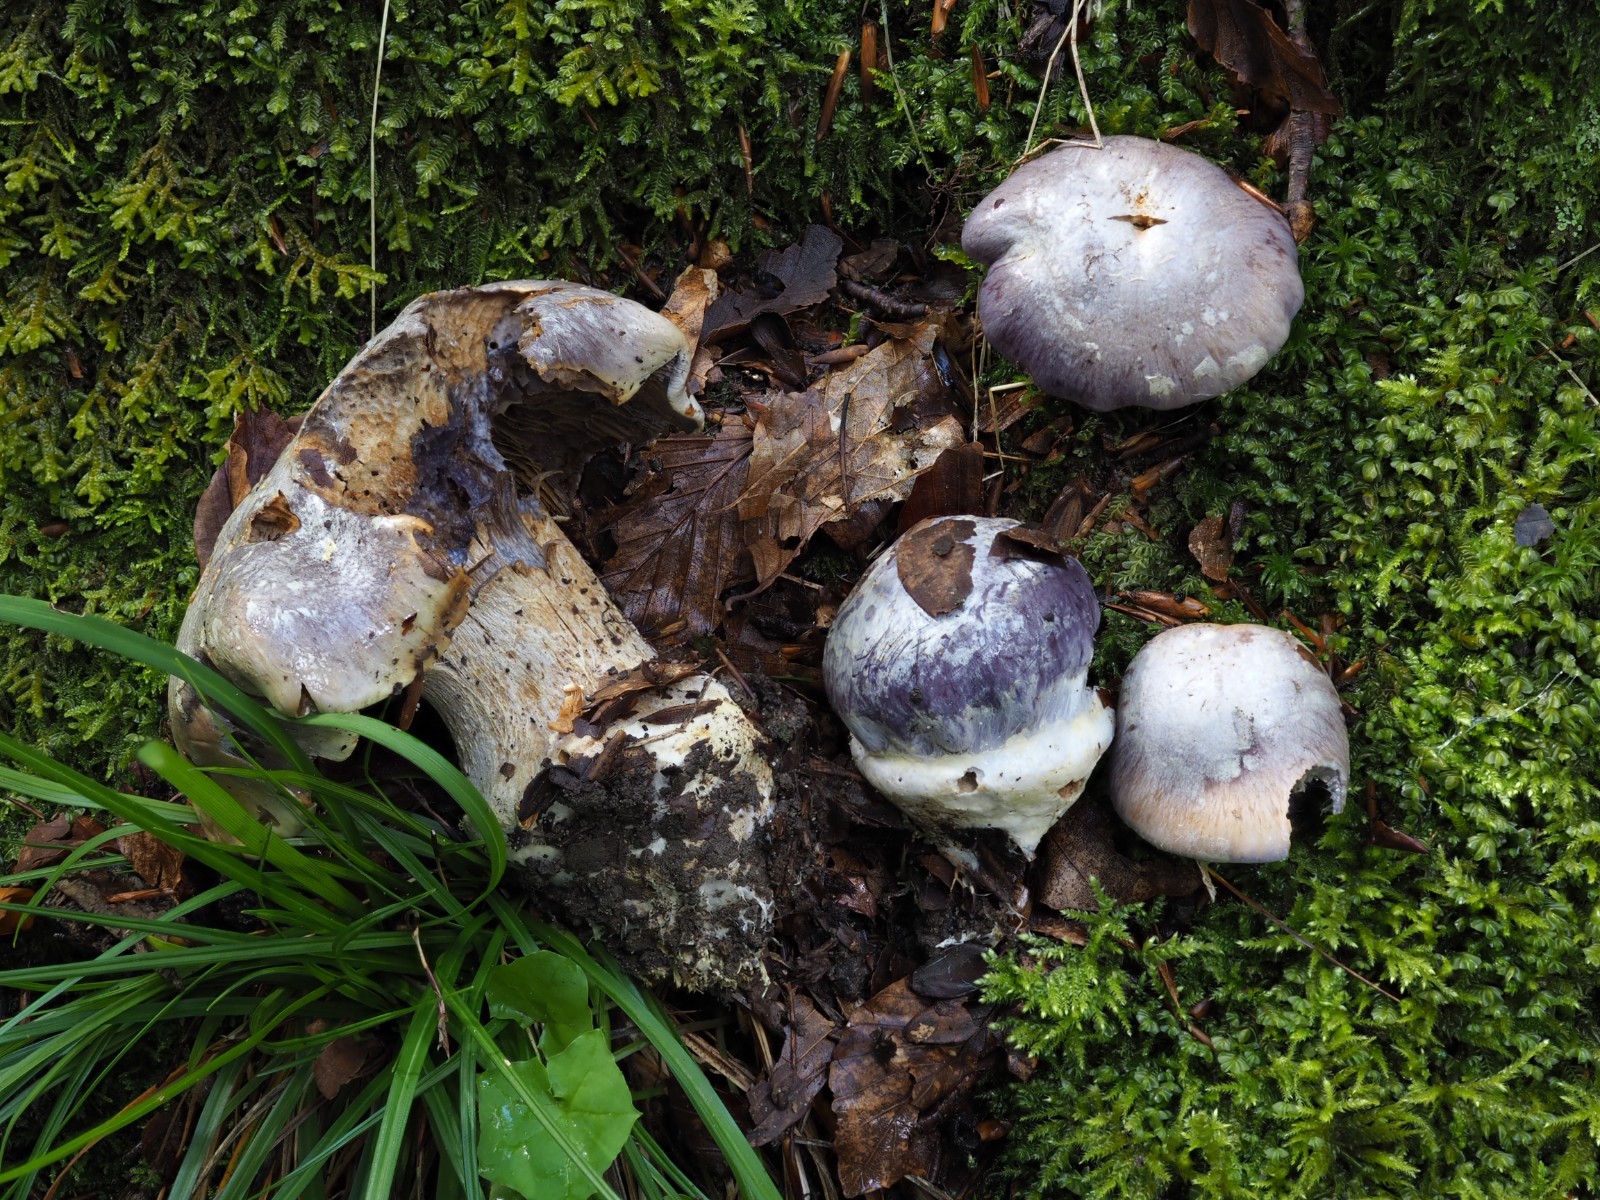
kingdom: Fungi
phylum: Basidiomycota
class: Agaricomycetes
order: Agaricales
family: Cortinariaceae
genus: Cortinarius
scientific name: Cortinarius caerulescens
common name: blåkødet slørhat
